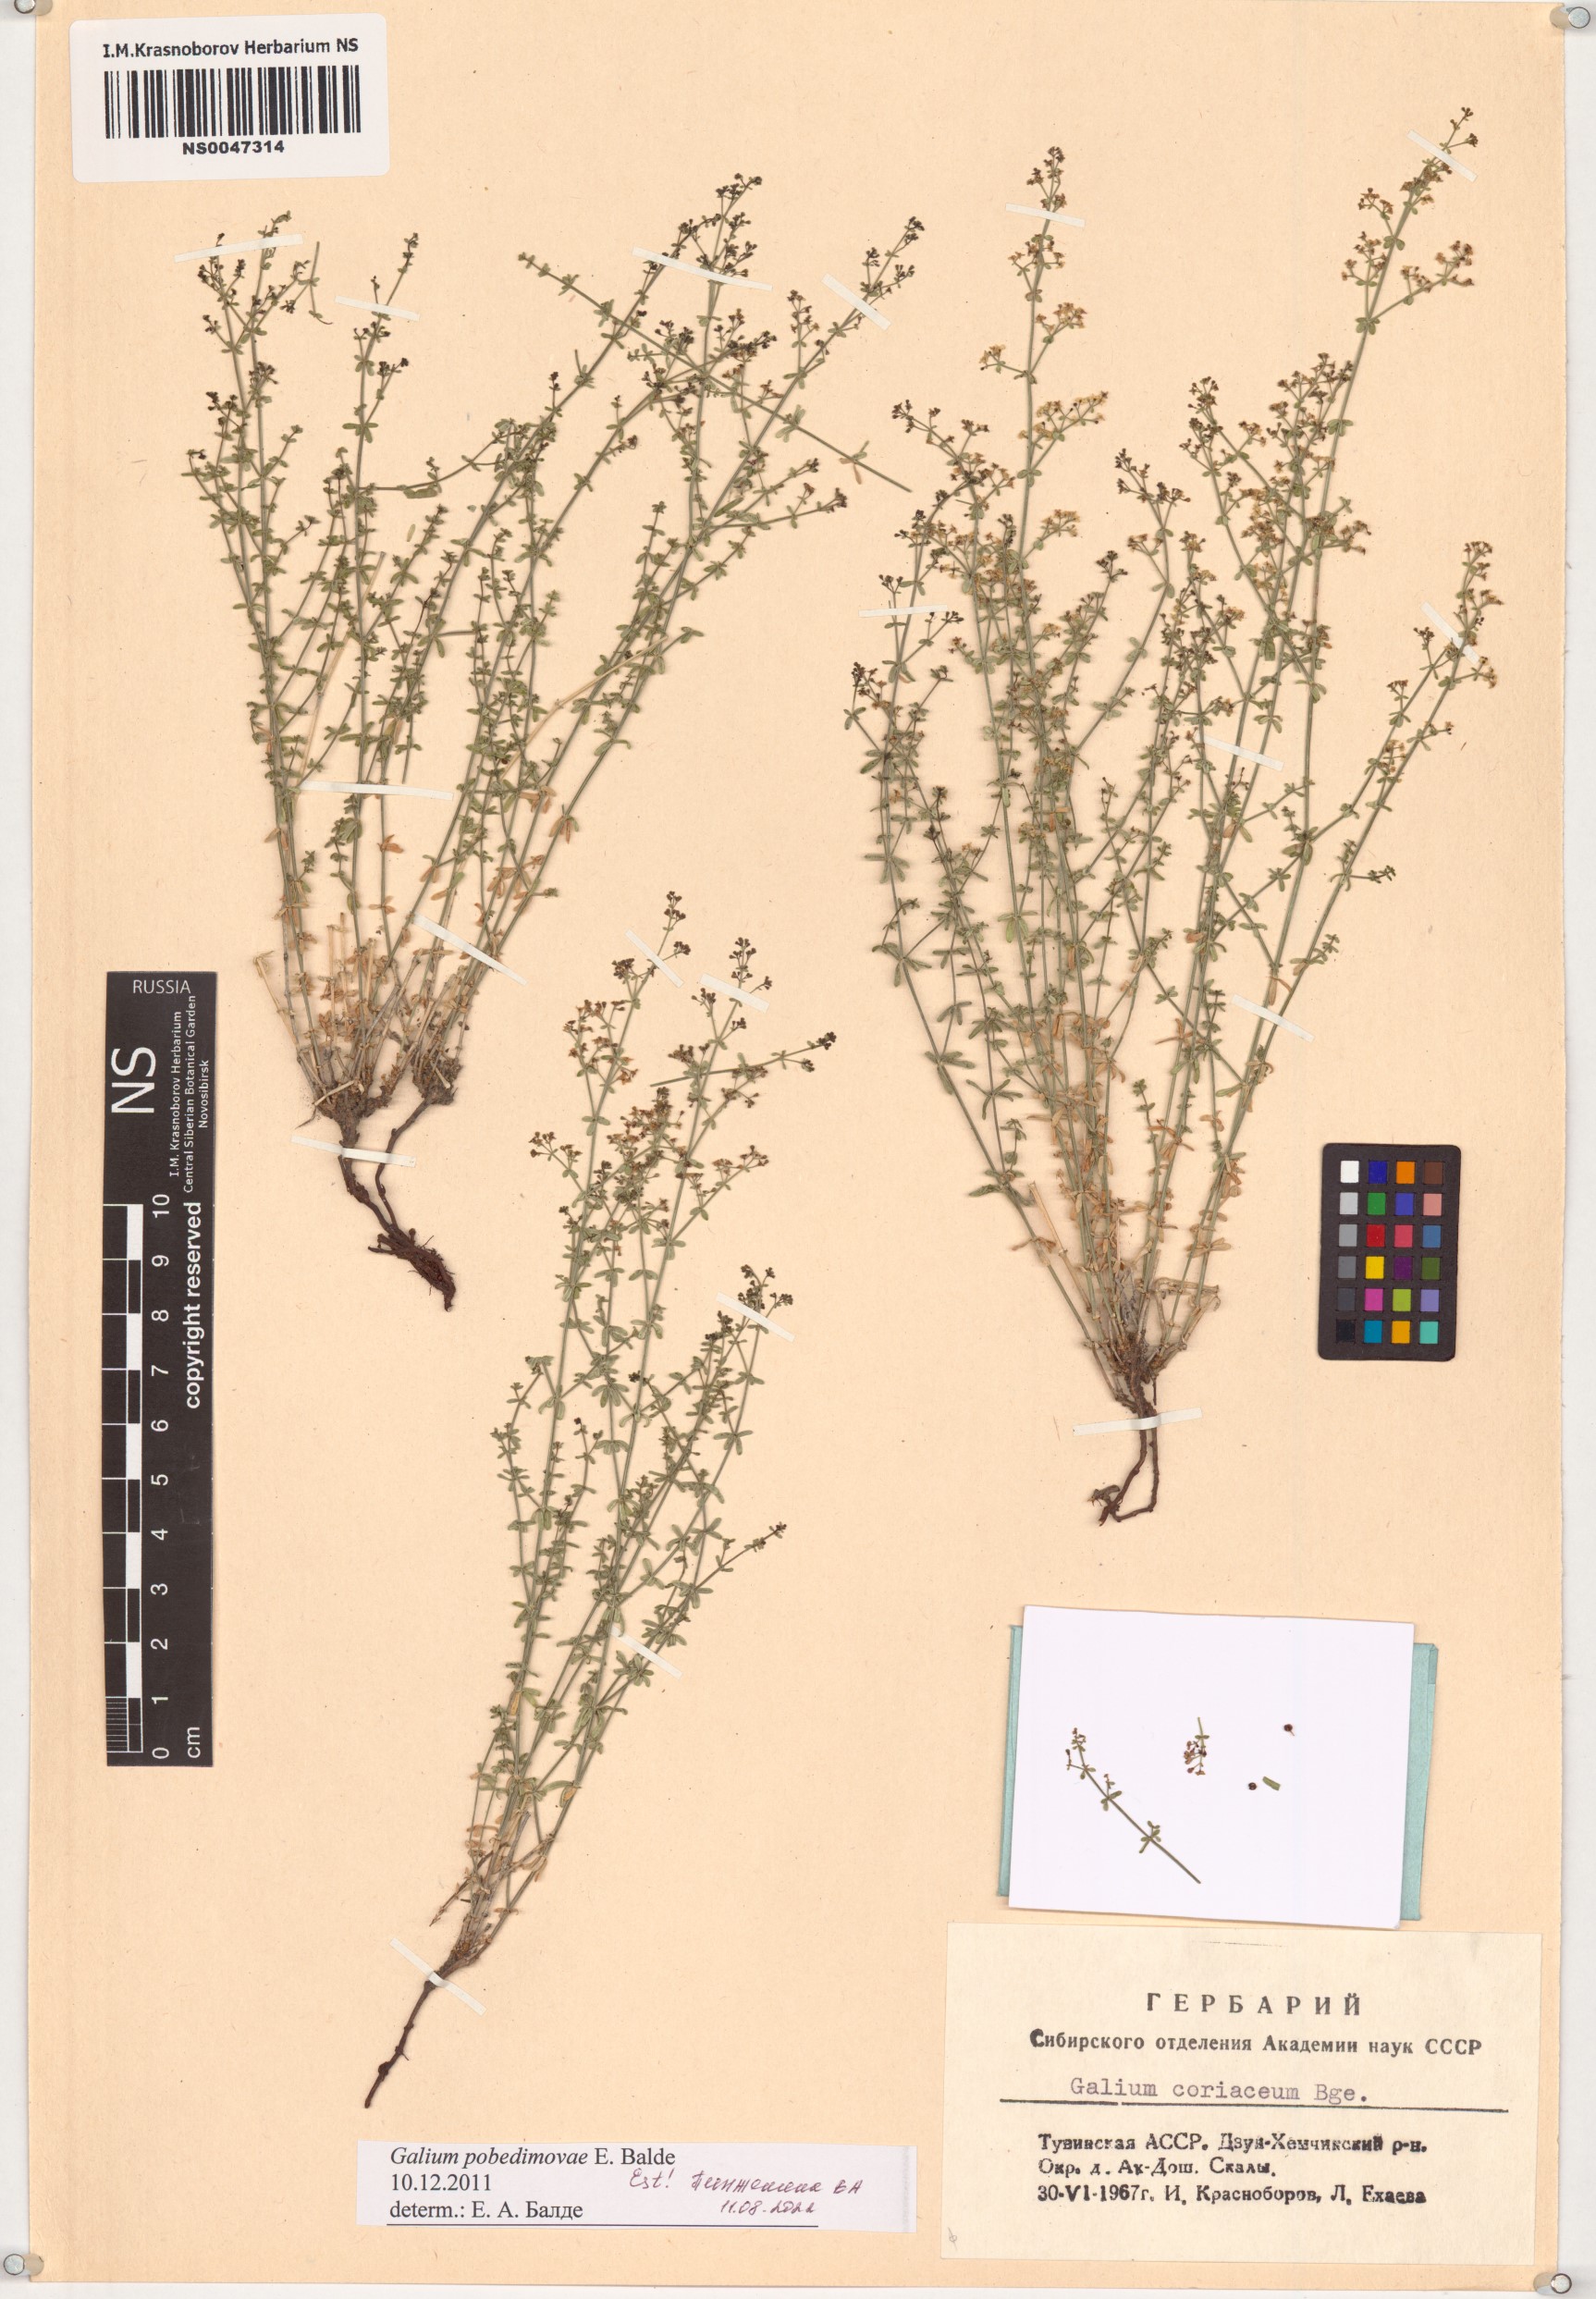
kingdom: Plantae
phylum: Tracheophyta
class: Magnoliopsida
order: Gentianales
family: Rubiaceae
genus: Galium
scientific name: Galium pobedimovae
